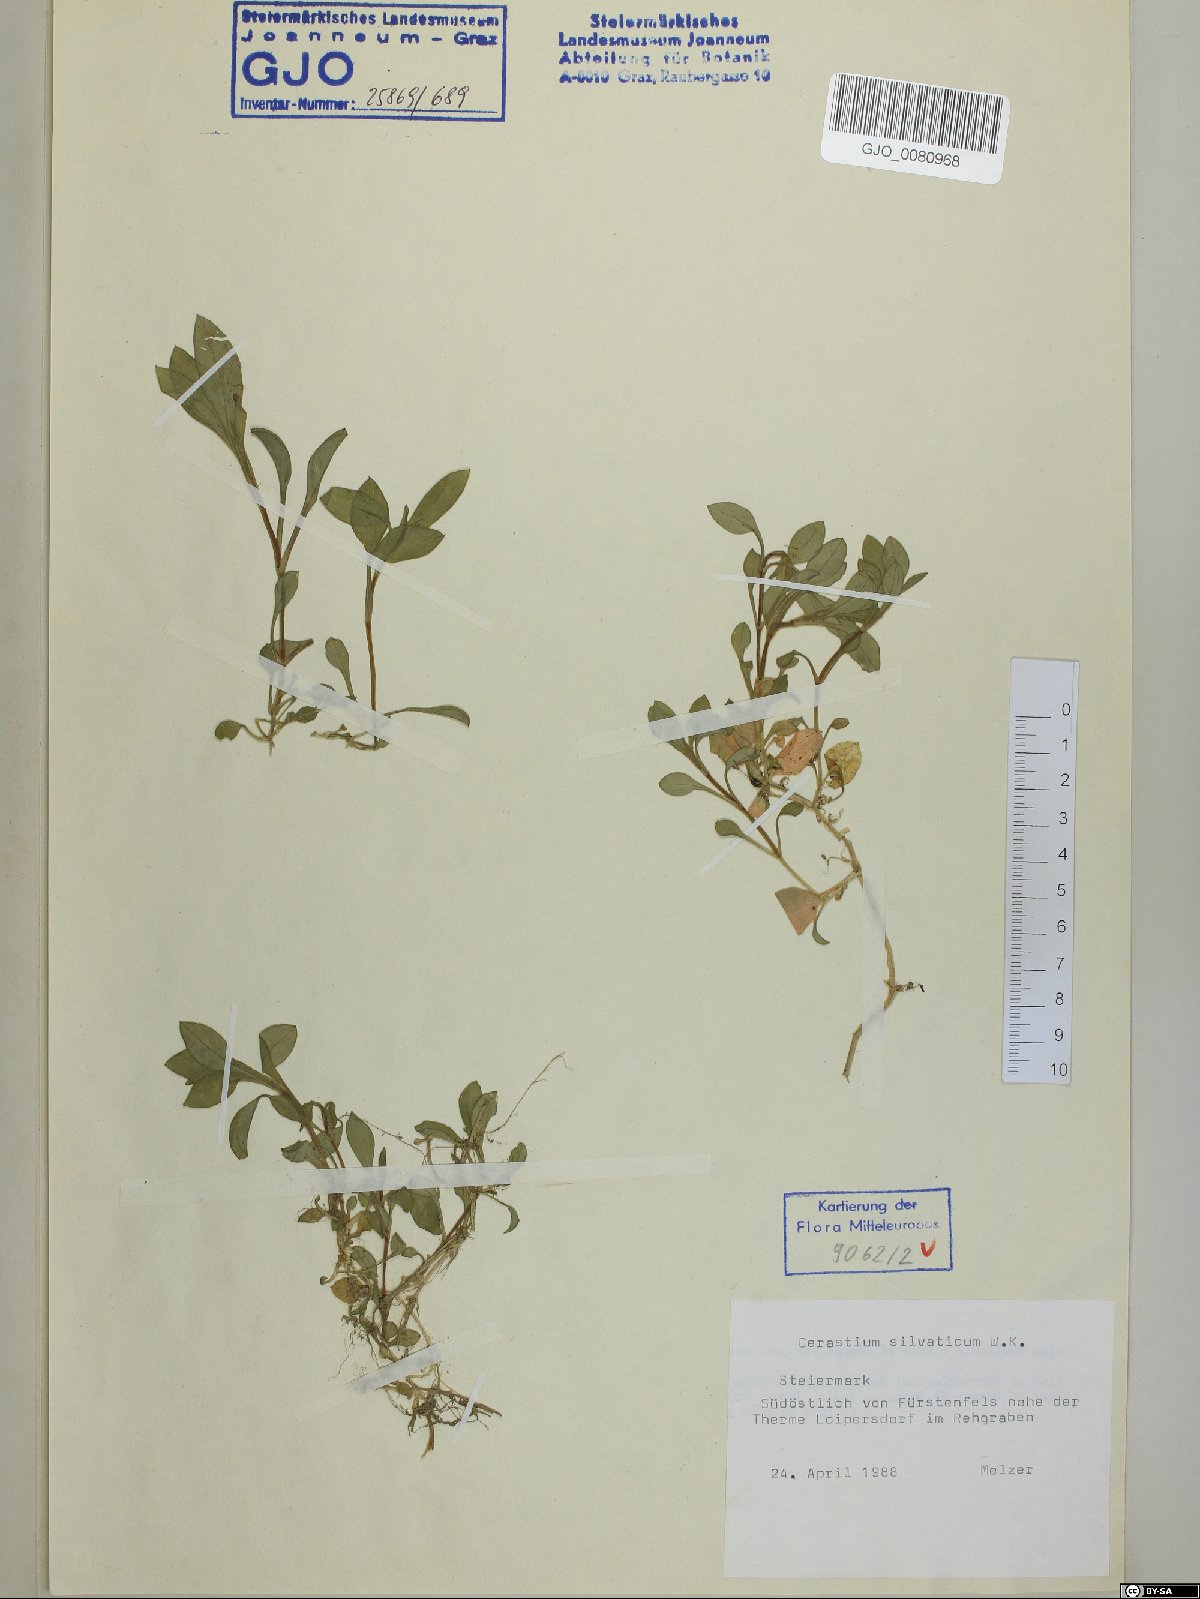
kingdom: Plantae
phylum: Tracheophyta
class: Magnoliopsida
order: Caryophyllales
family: Caryophyllaceae
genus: Cerastium
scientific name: Cerastium sylvaticum
